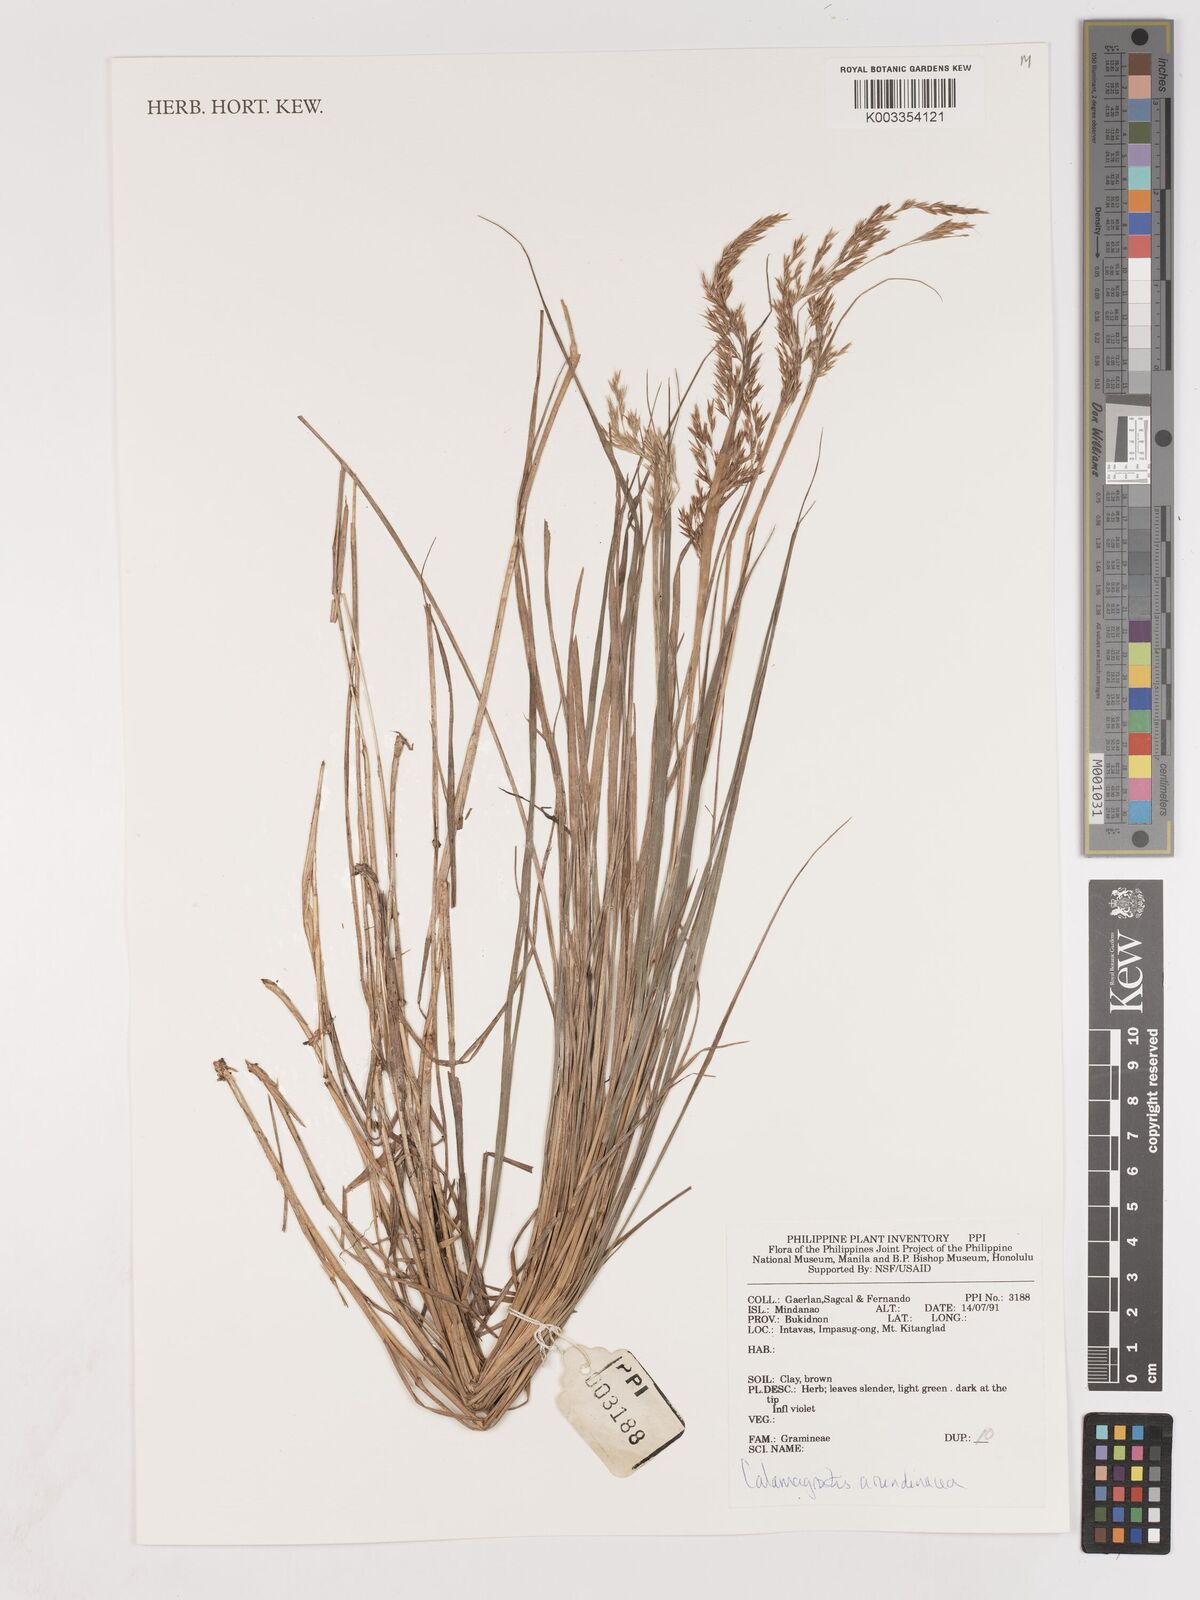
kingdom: Plantae
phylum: Tracheophyta
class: Liliopsida
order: Poales
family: Poaceae
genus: Calamagrostis
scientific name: Calamagrostis
